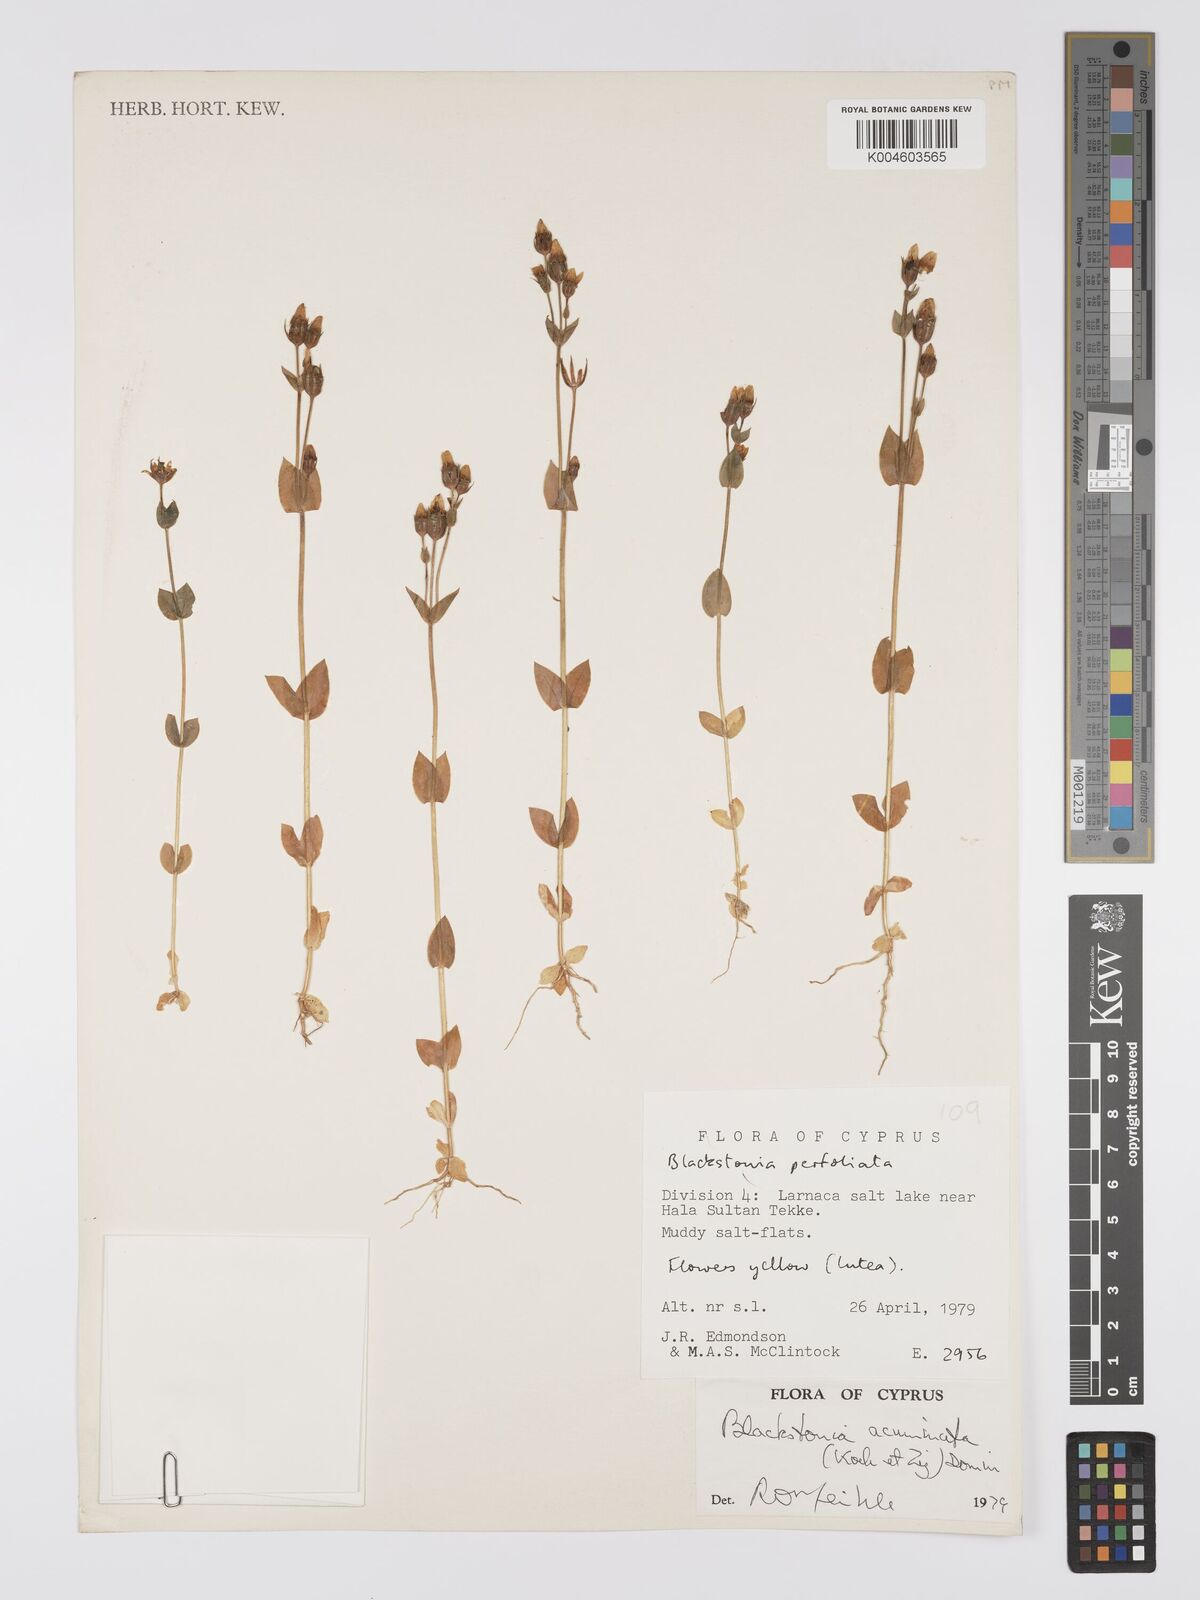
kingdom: Plantae
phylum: Tracheophyta
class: Magnoliopsida
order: Gentianales
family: Gentianaceae
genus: Blackstonia
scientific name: Blackstonia acuminata
